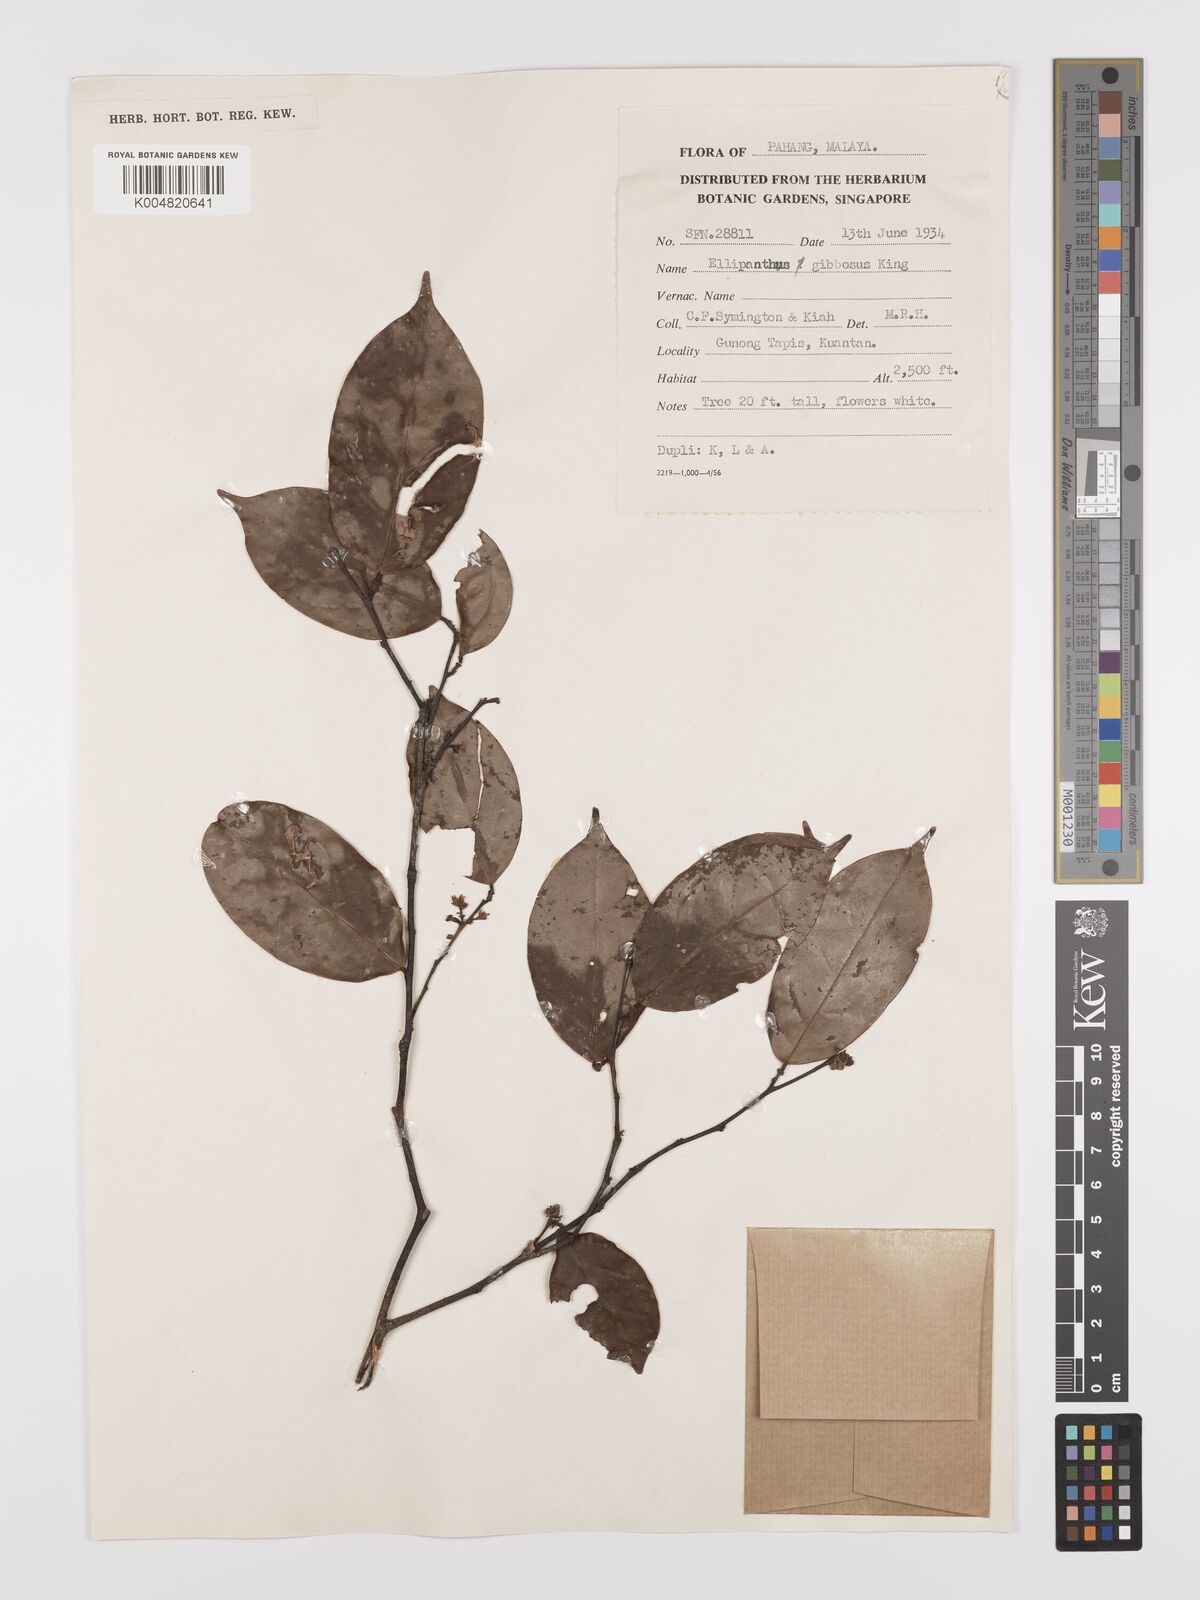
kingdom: Plantae
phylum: Tracheophyta
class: Magnoliopsida
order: Oxalidales
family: Connaraceae
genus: Ellipanthus
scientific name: Ellipanthus tomentosus
